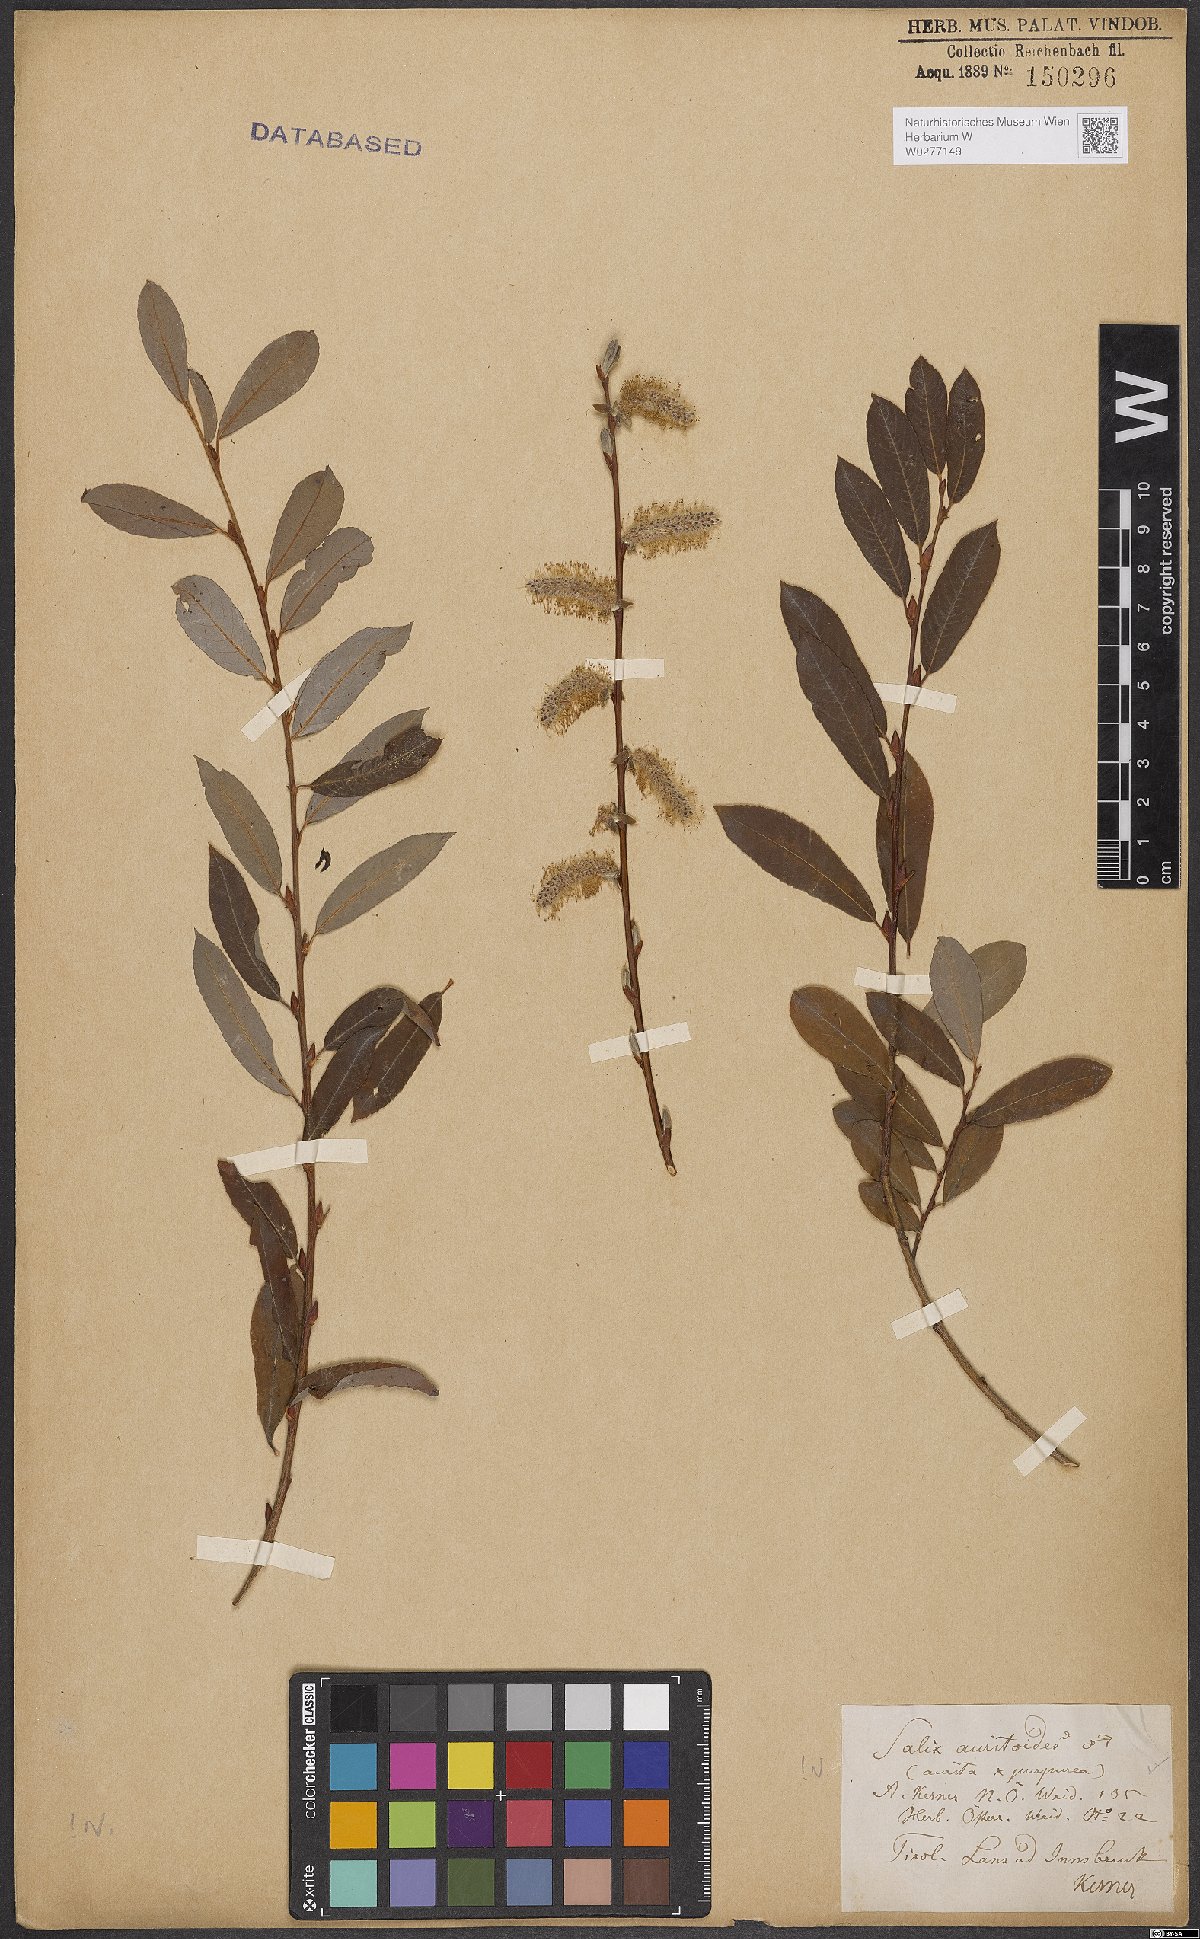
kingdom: Plantae
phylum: Tracheophyta
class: Magnoliopsida
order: Malpighiales
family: Salicaceae
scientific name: Salicaceae
